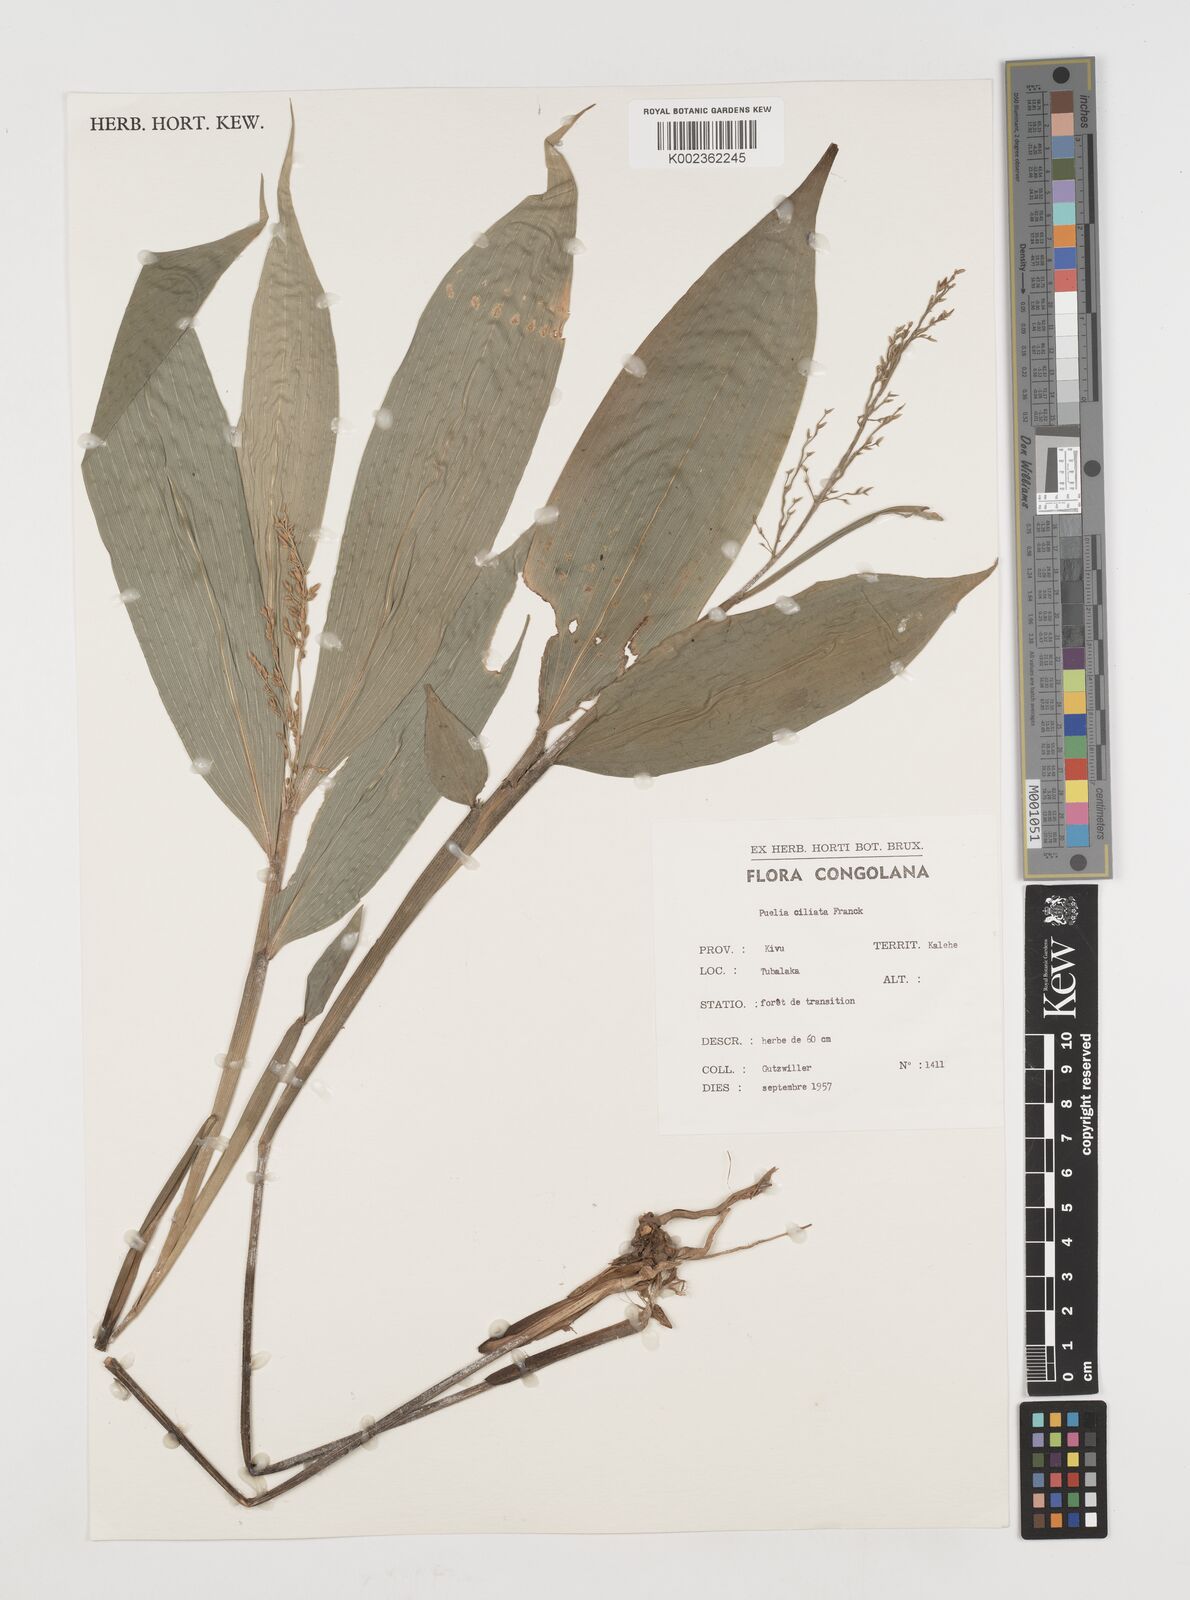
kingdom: Plantae
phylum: Tracheophyta
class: Liliopsida
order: Poales
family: Poaceae
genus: Puelia
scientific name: Puelia olyriformis
